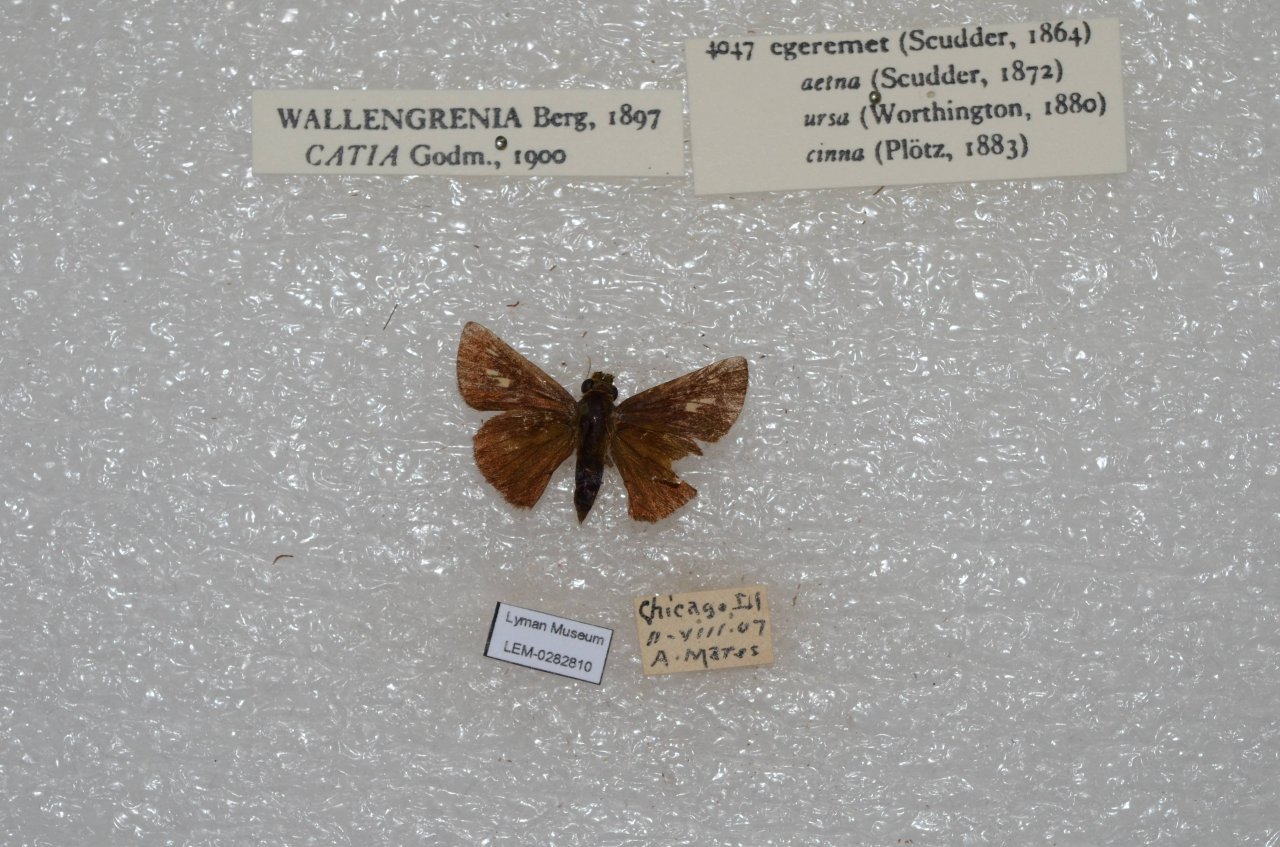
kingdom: Animalia
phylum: Arthropoda
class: Insecta
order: Lepidoptera
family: Hesperiidae
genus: Polites
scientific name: Polites egeremet
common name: Northern Broken-Dash
